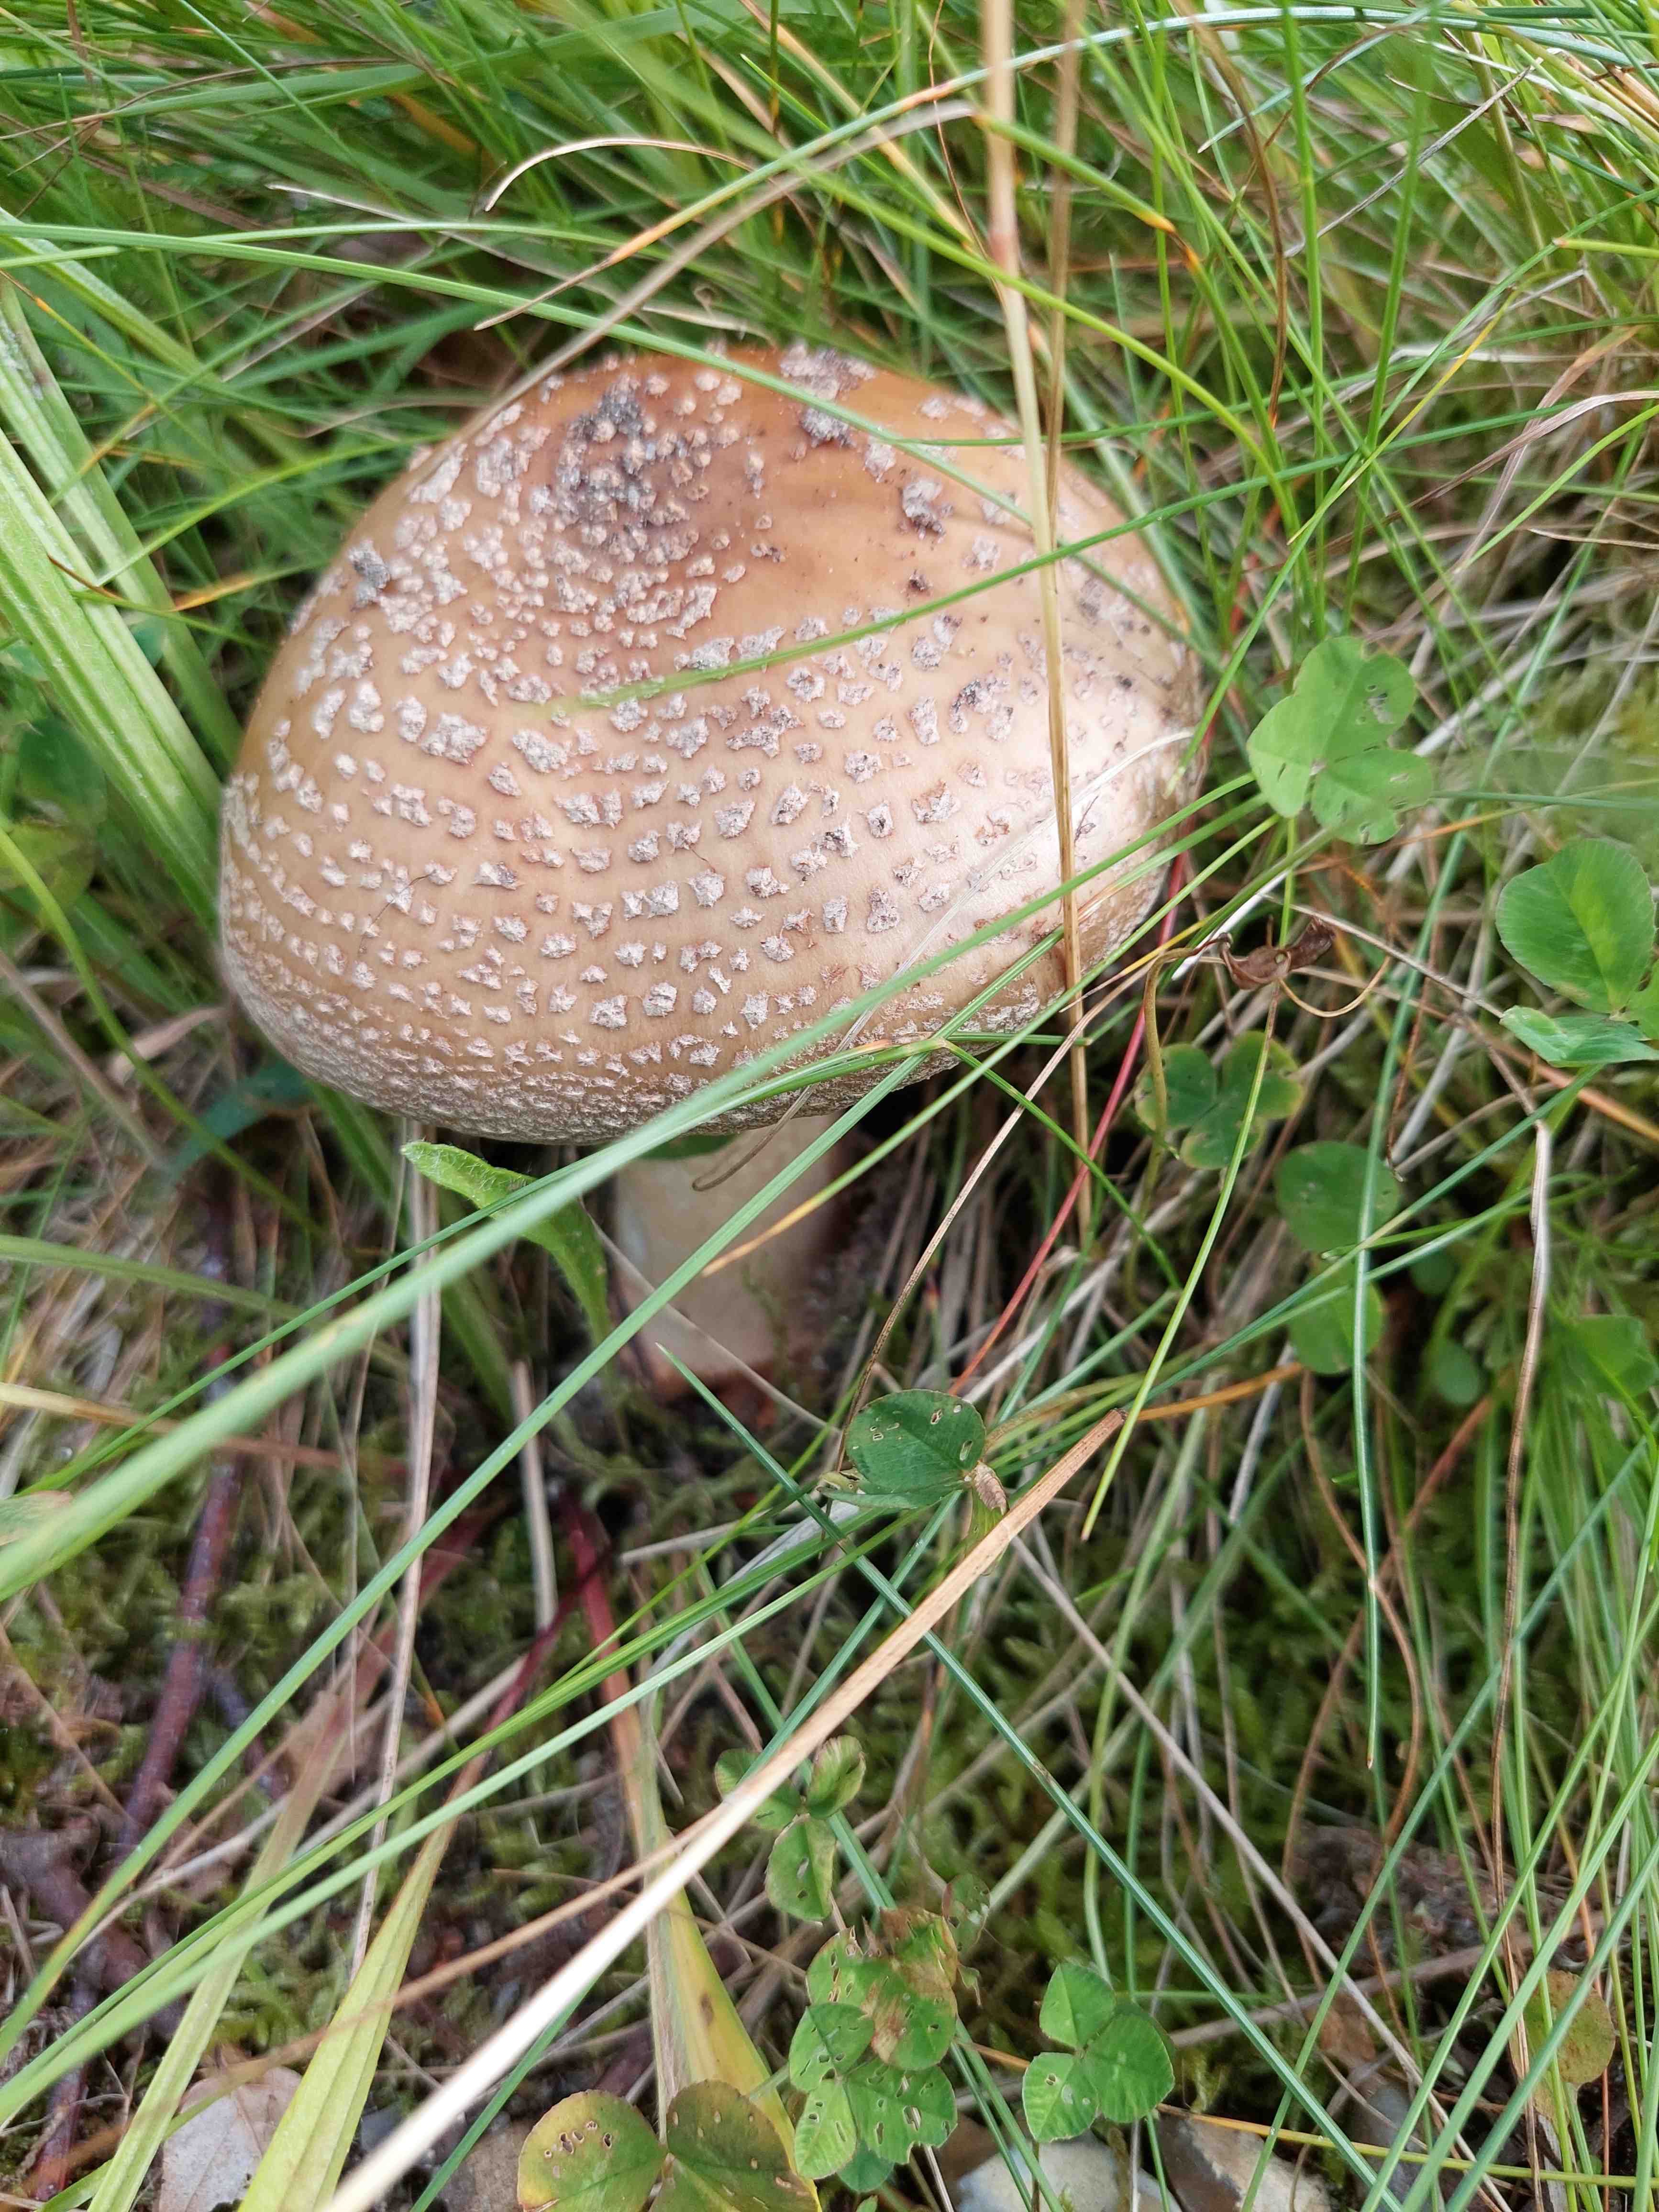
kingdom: Fungi
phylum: Basidiomycota
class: Agaricomycetes
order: Agaricales
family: Amanitaceae
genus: Amanita
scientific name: Amanita rubescens
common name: rødmende fluesvamp
